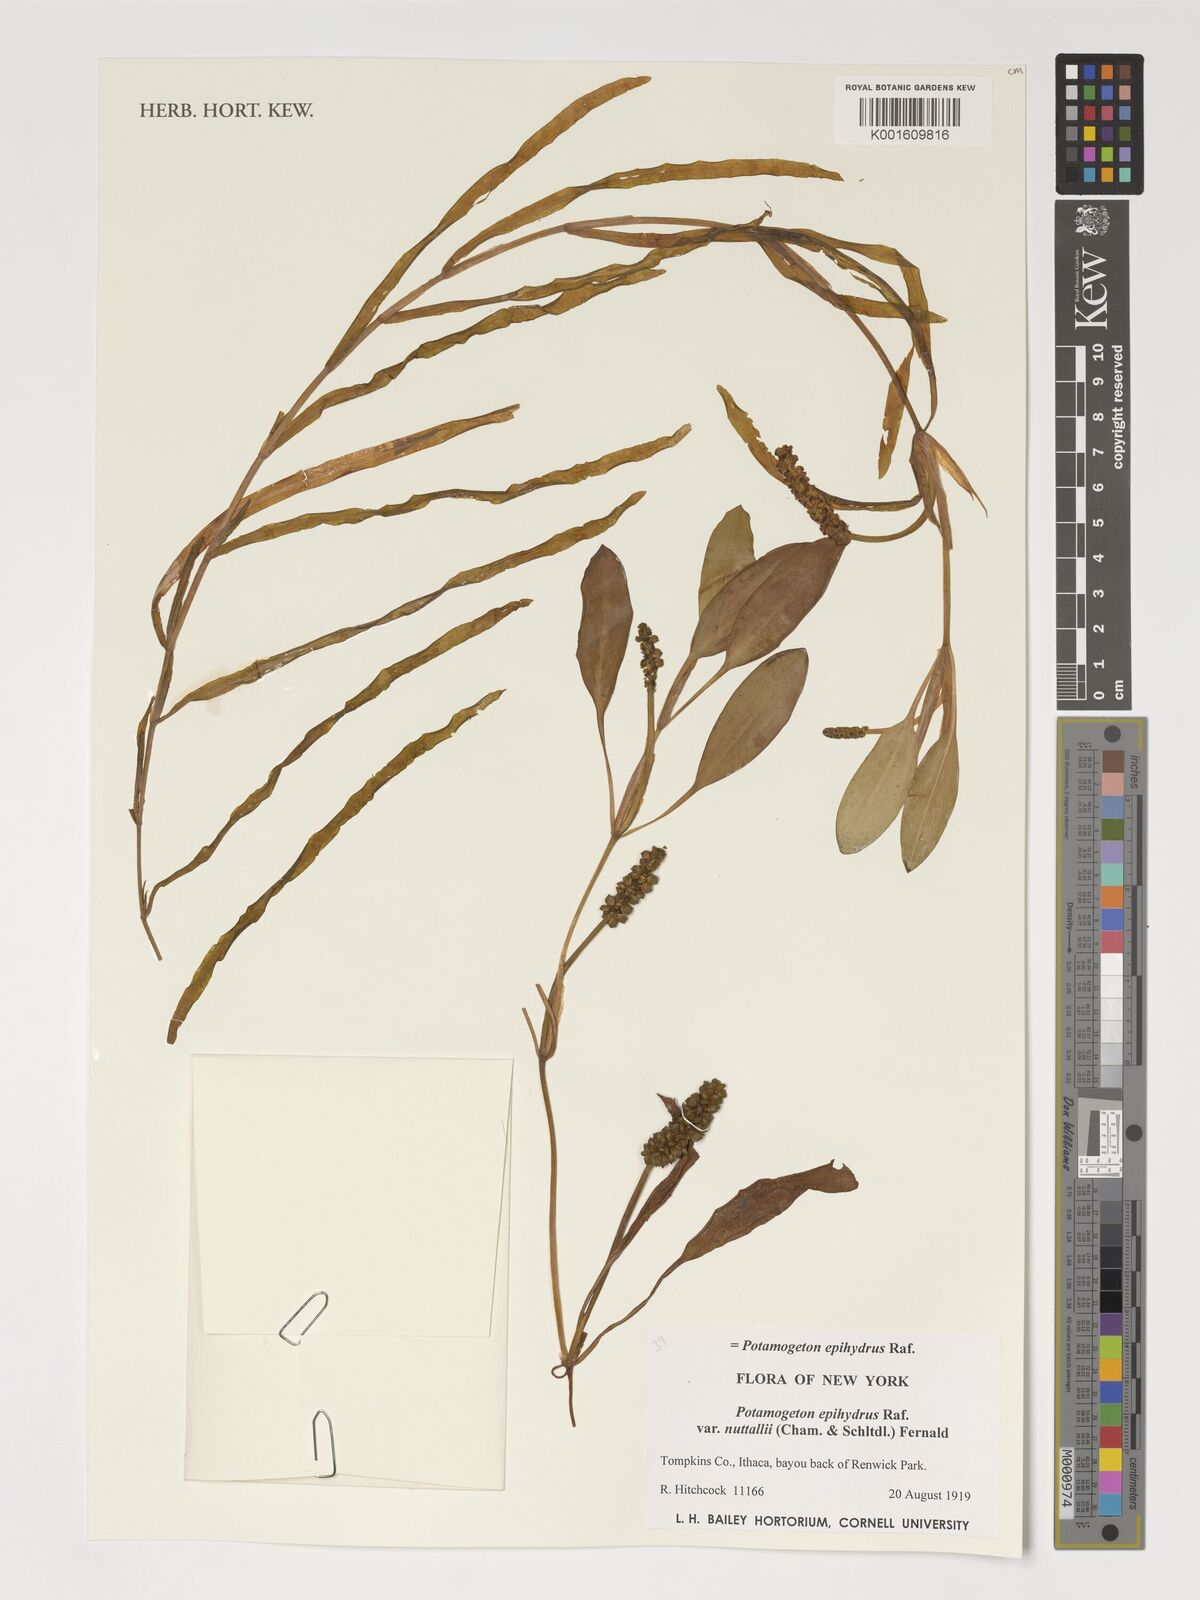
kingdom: Plantae
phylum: Tracheophyta
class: Liliopsida
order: Alismatales
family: Potamogetonaceae
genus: Potamogeton
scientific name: Potamogeton epihydrus
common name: American pondweed
